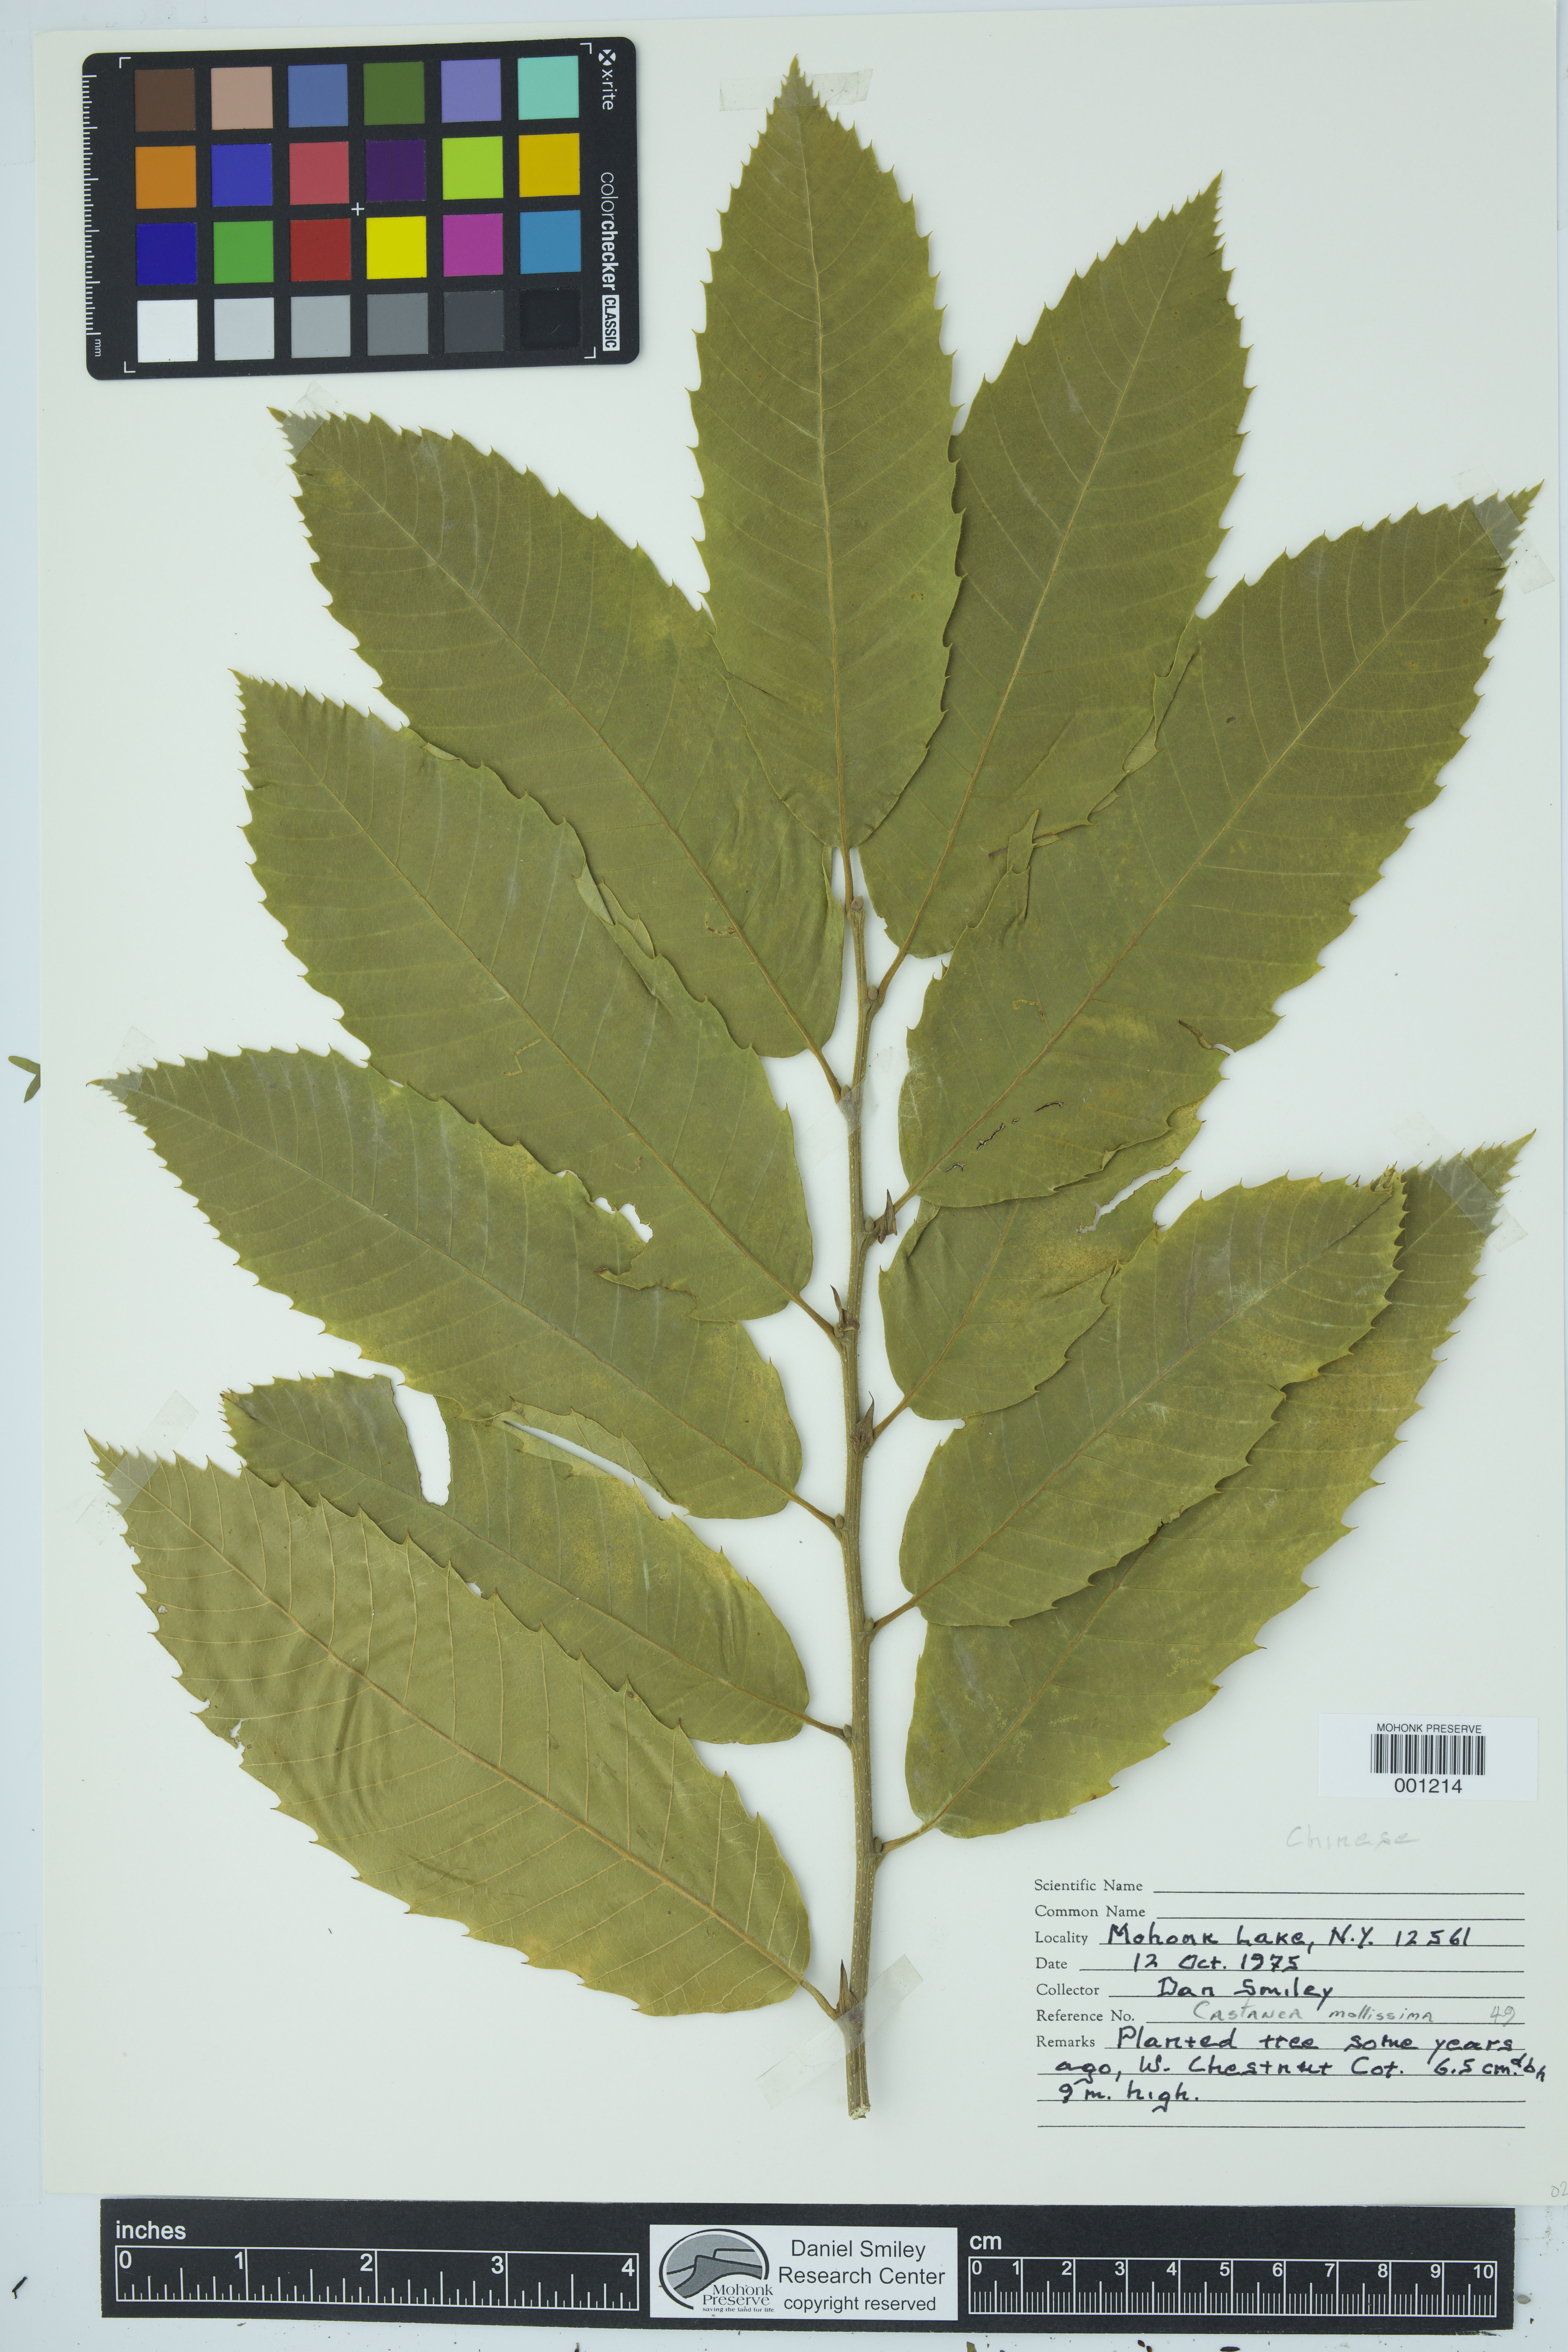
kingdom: Plantae
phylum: Tracheophyta
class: Magnoliopsida
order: Fagales
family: Fagaceae
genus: Castanea
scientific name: Castanea mollissima
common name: Chinese chestnut
